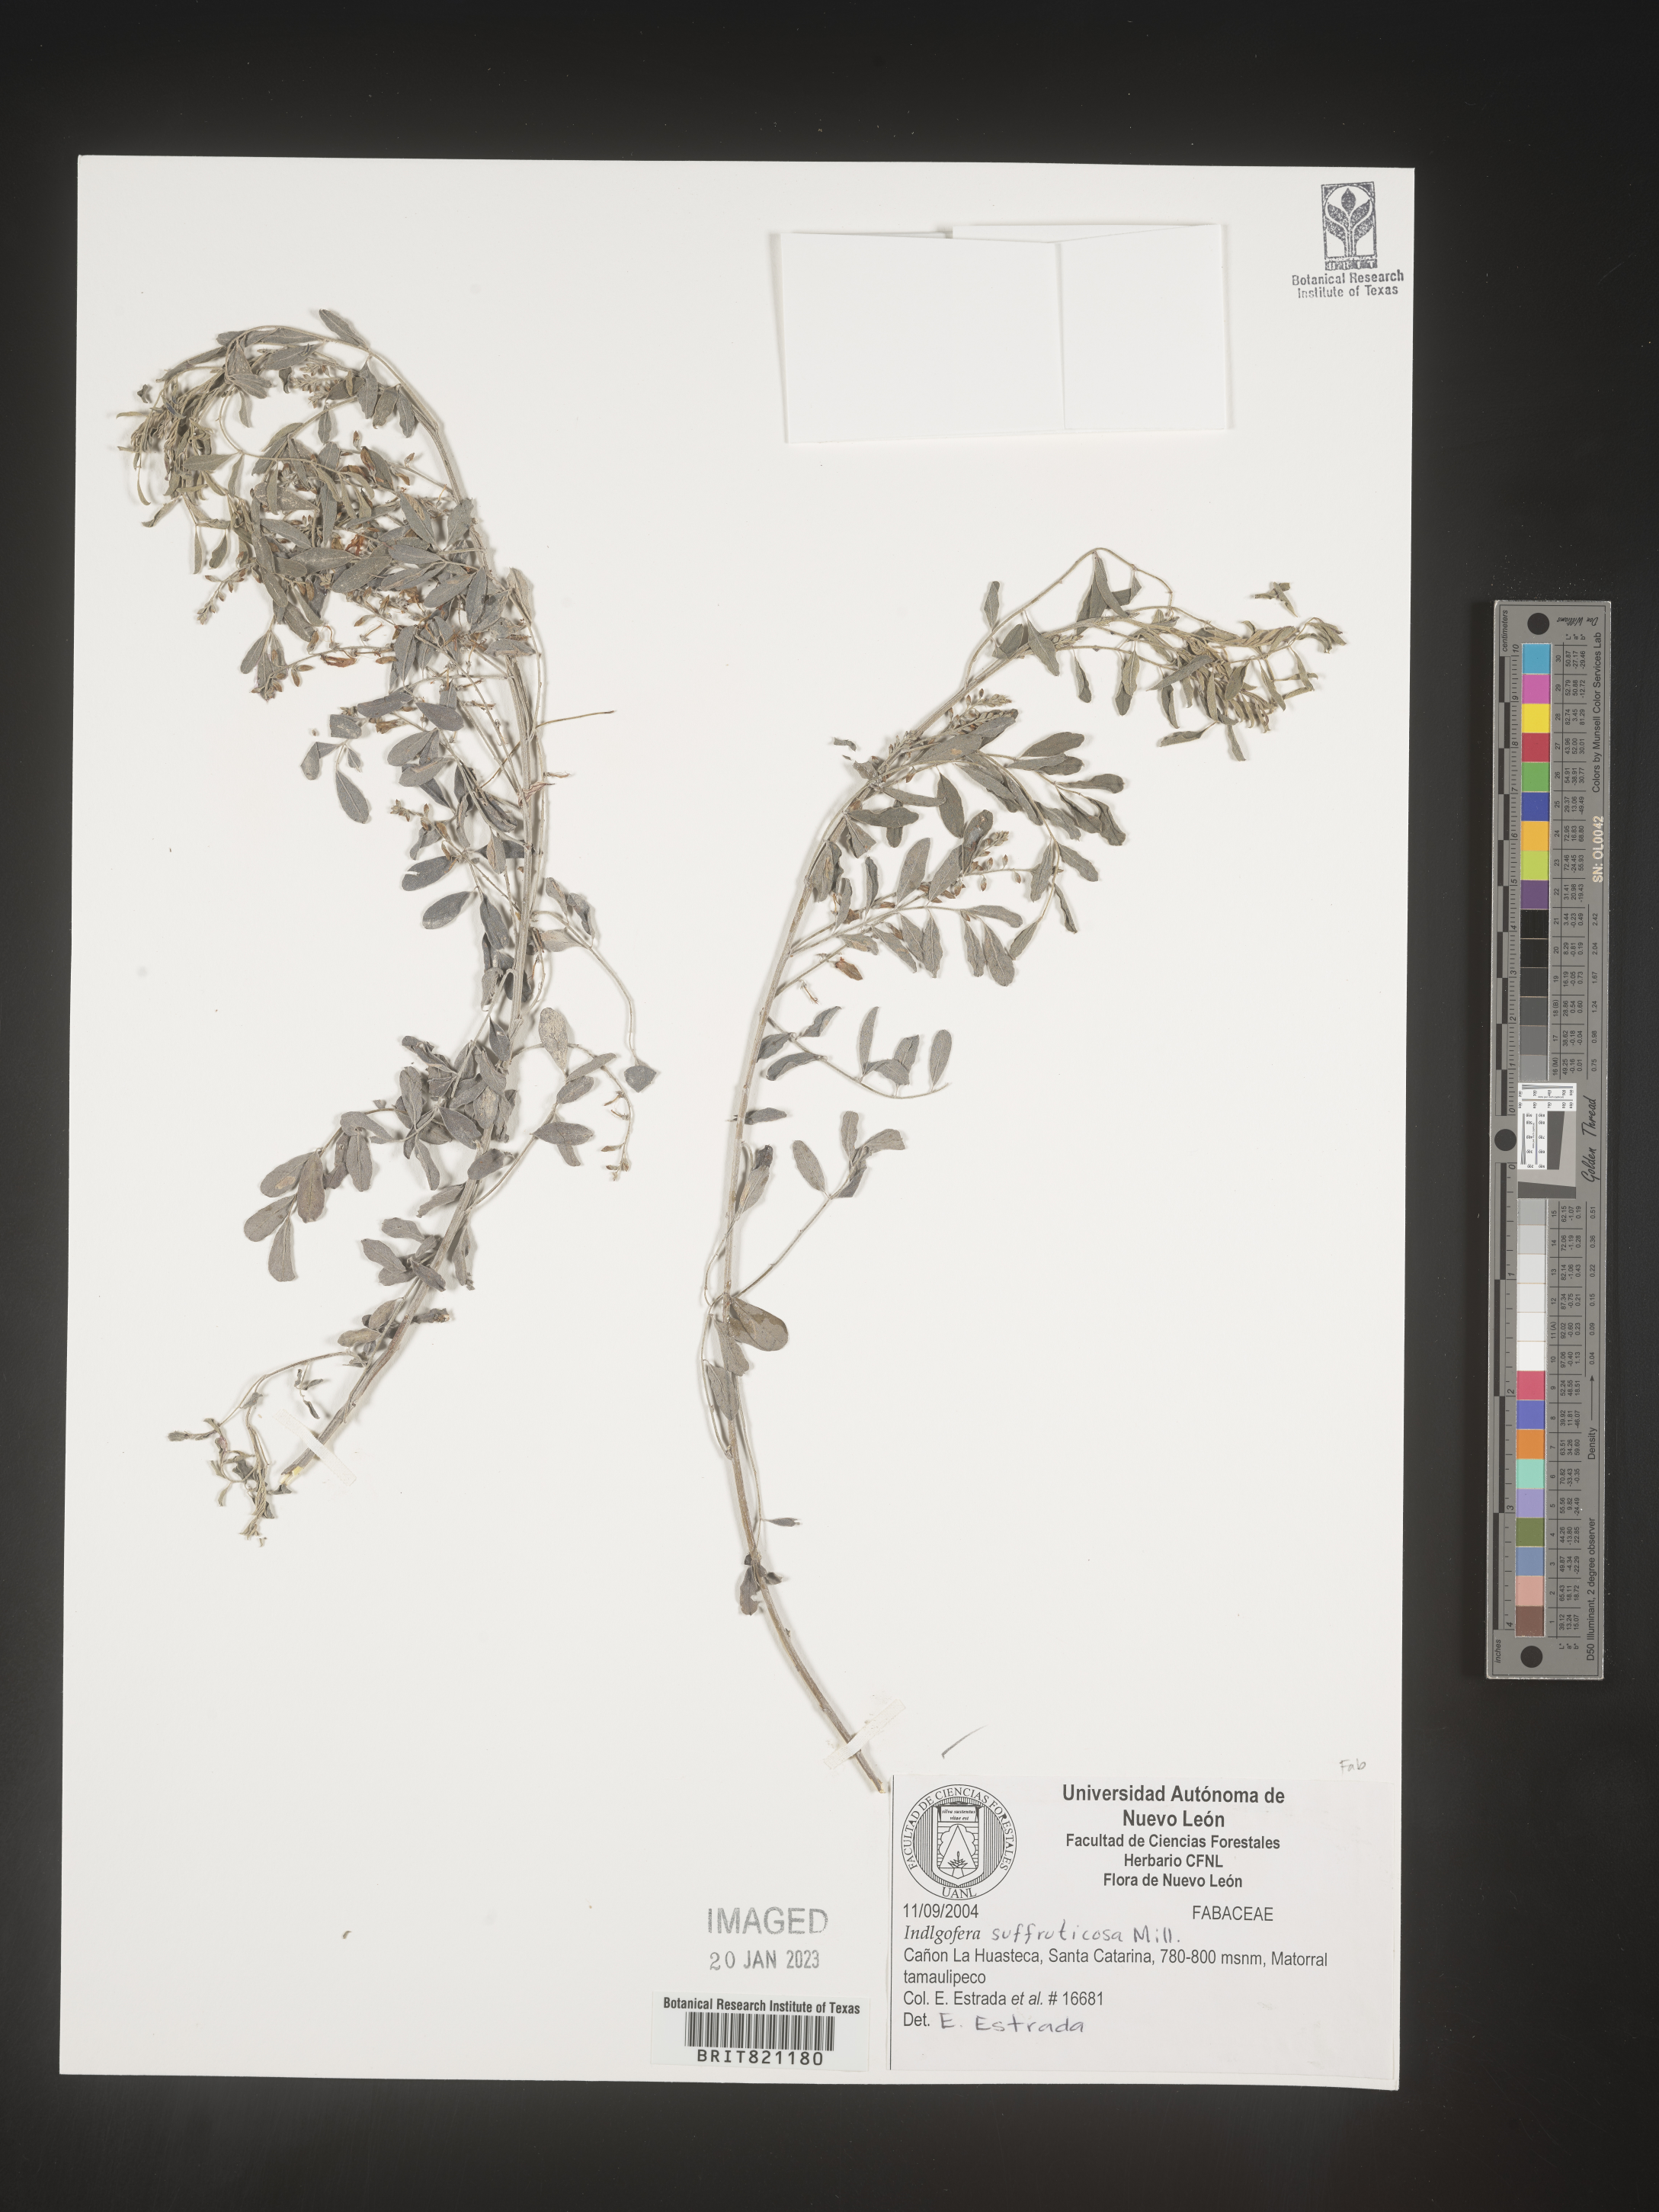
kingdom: Plantae
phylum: Tracheophyta
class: Magnoliopsida
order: Fabales
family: Fabaceae
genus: Indigofera
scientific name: Indigofera
